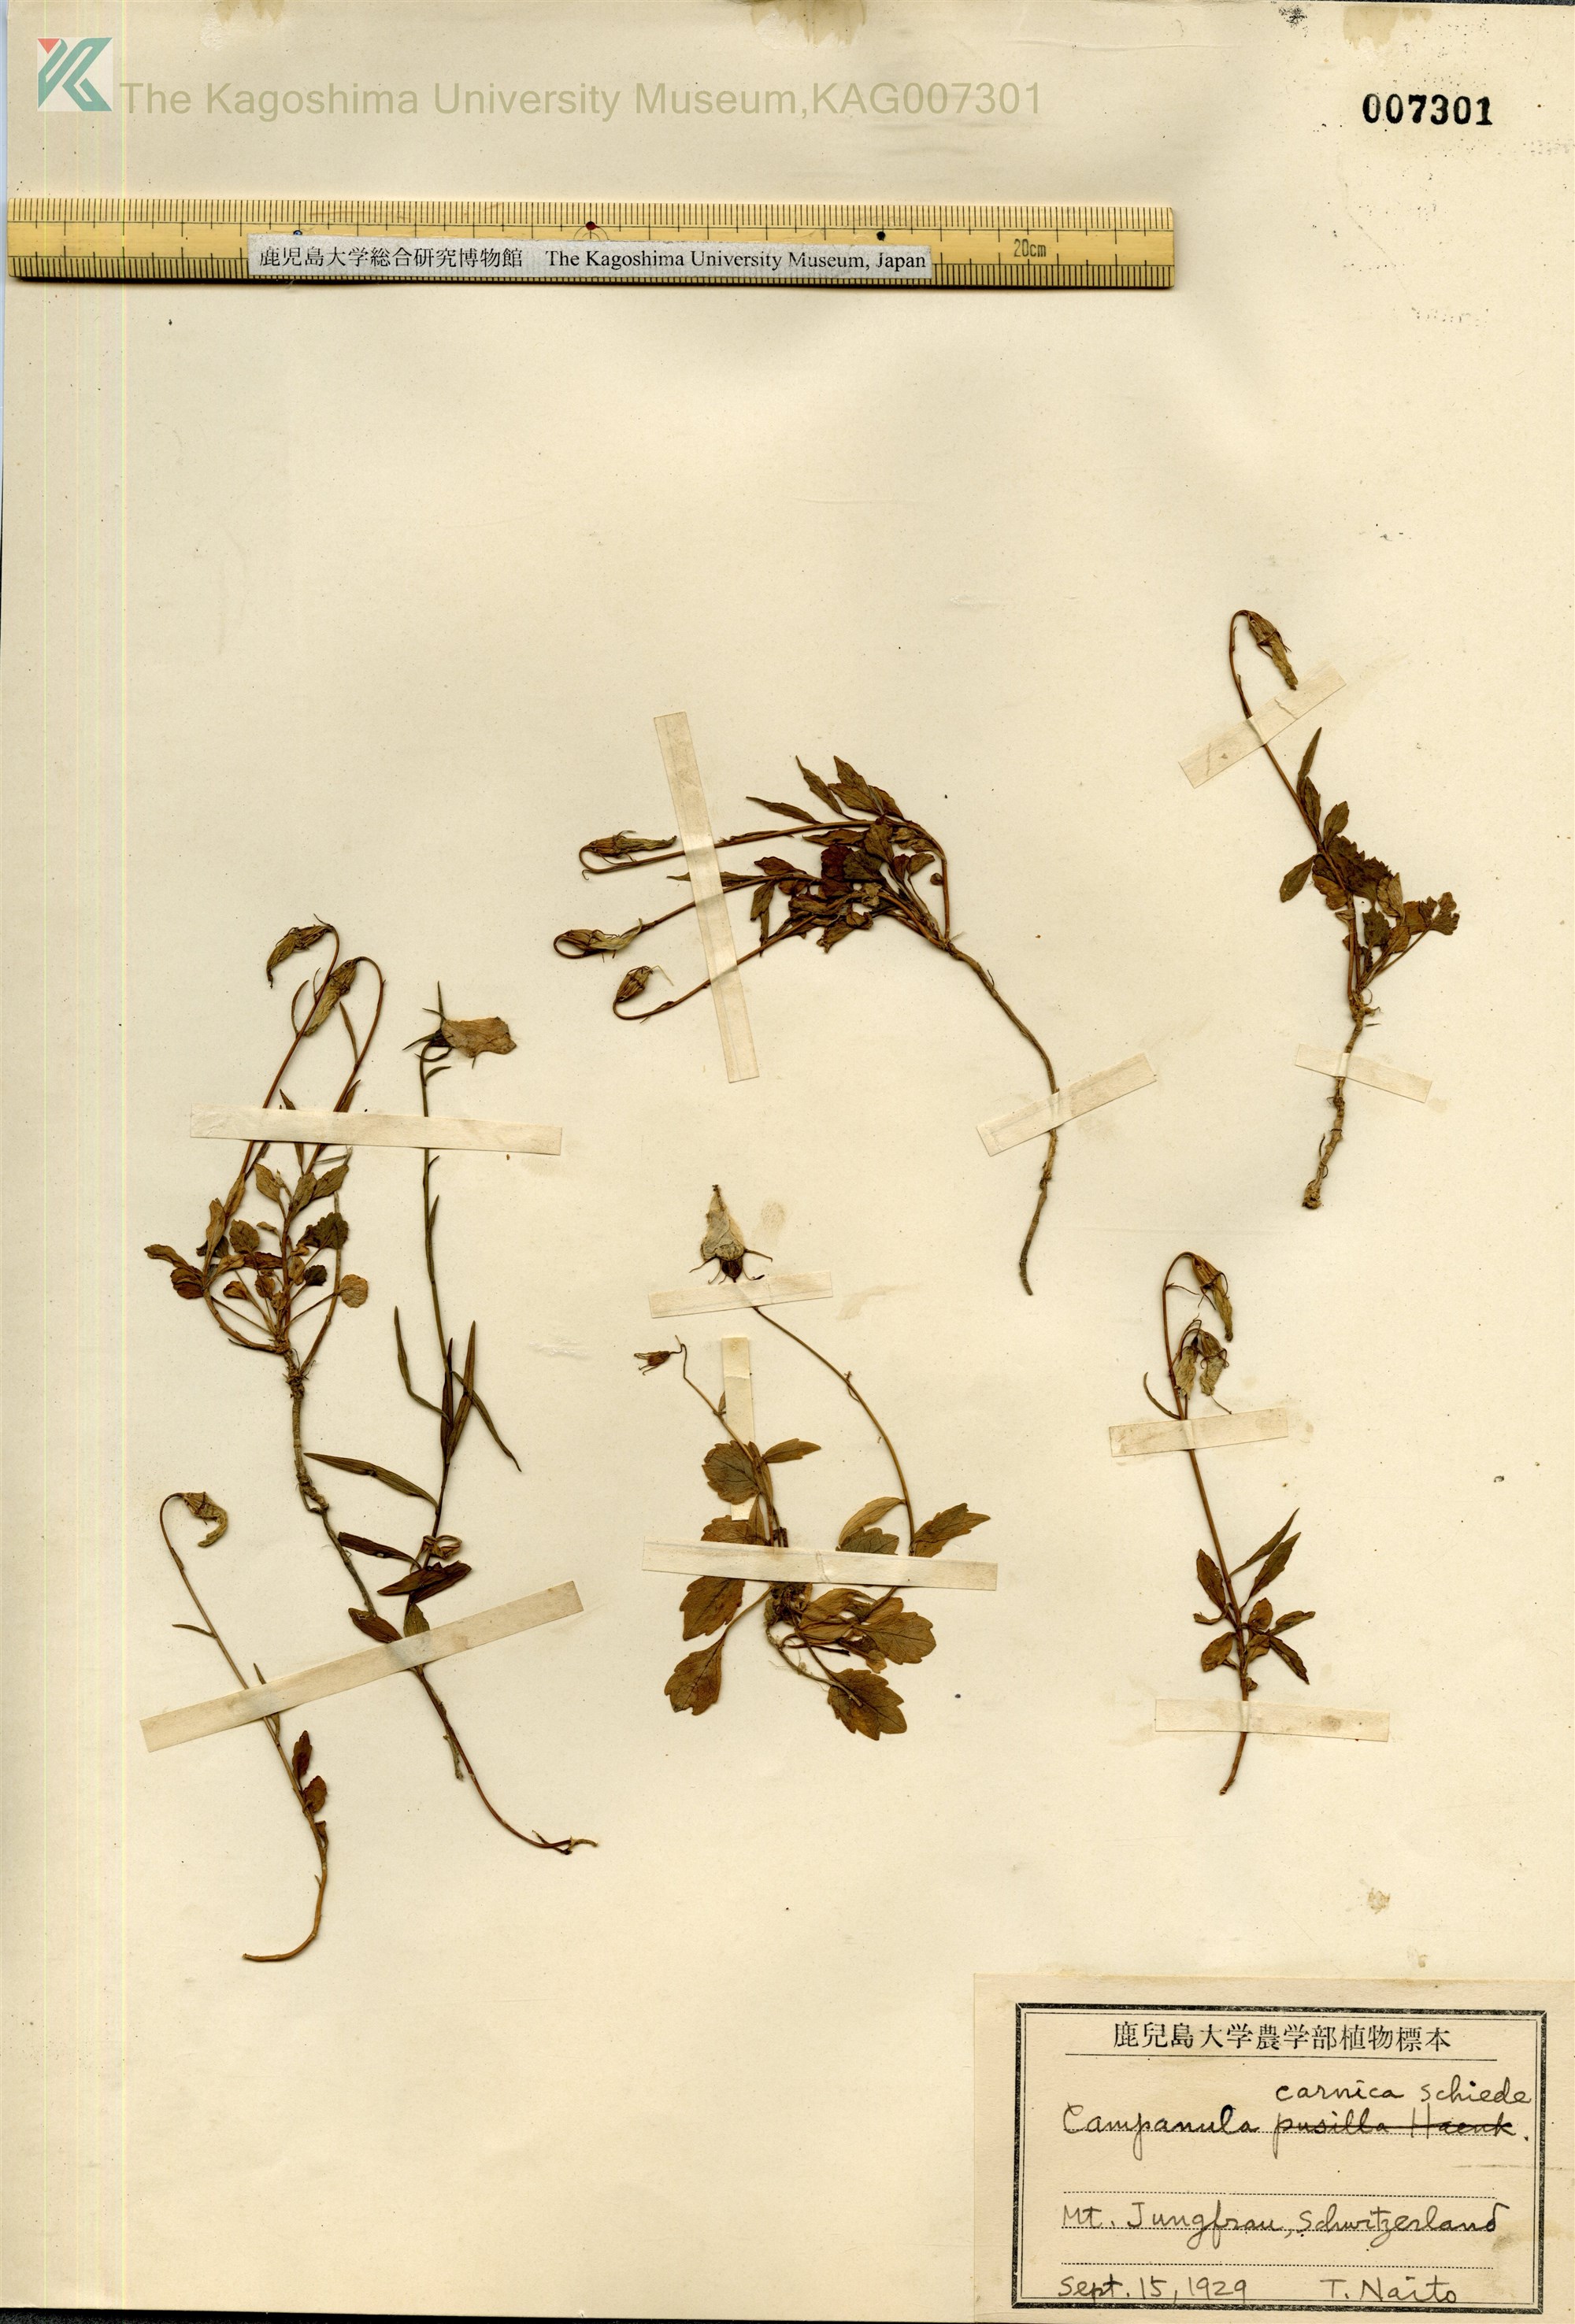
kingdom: Plantae
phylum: Tracheophyta
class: Magnoliopsida
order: Asterales
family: Campanulaceae
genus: Campanula
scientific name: Campanula carnica
